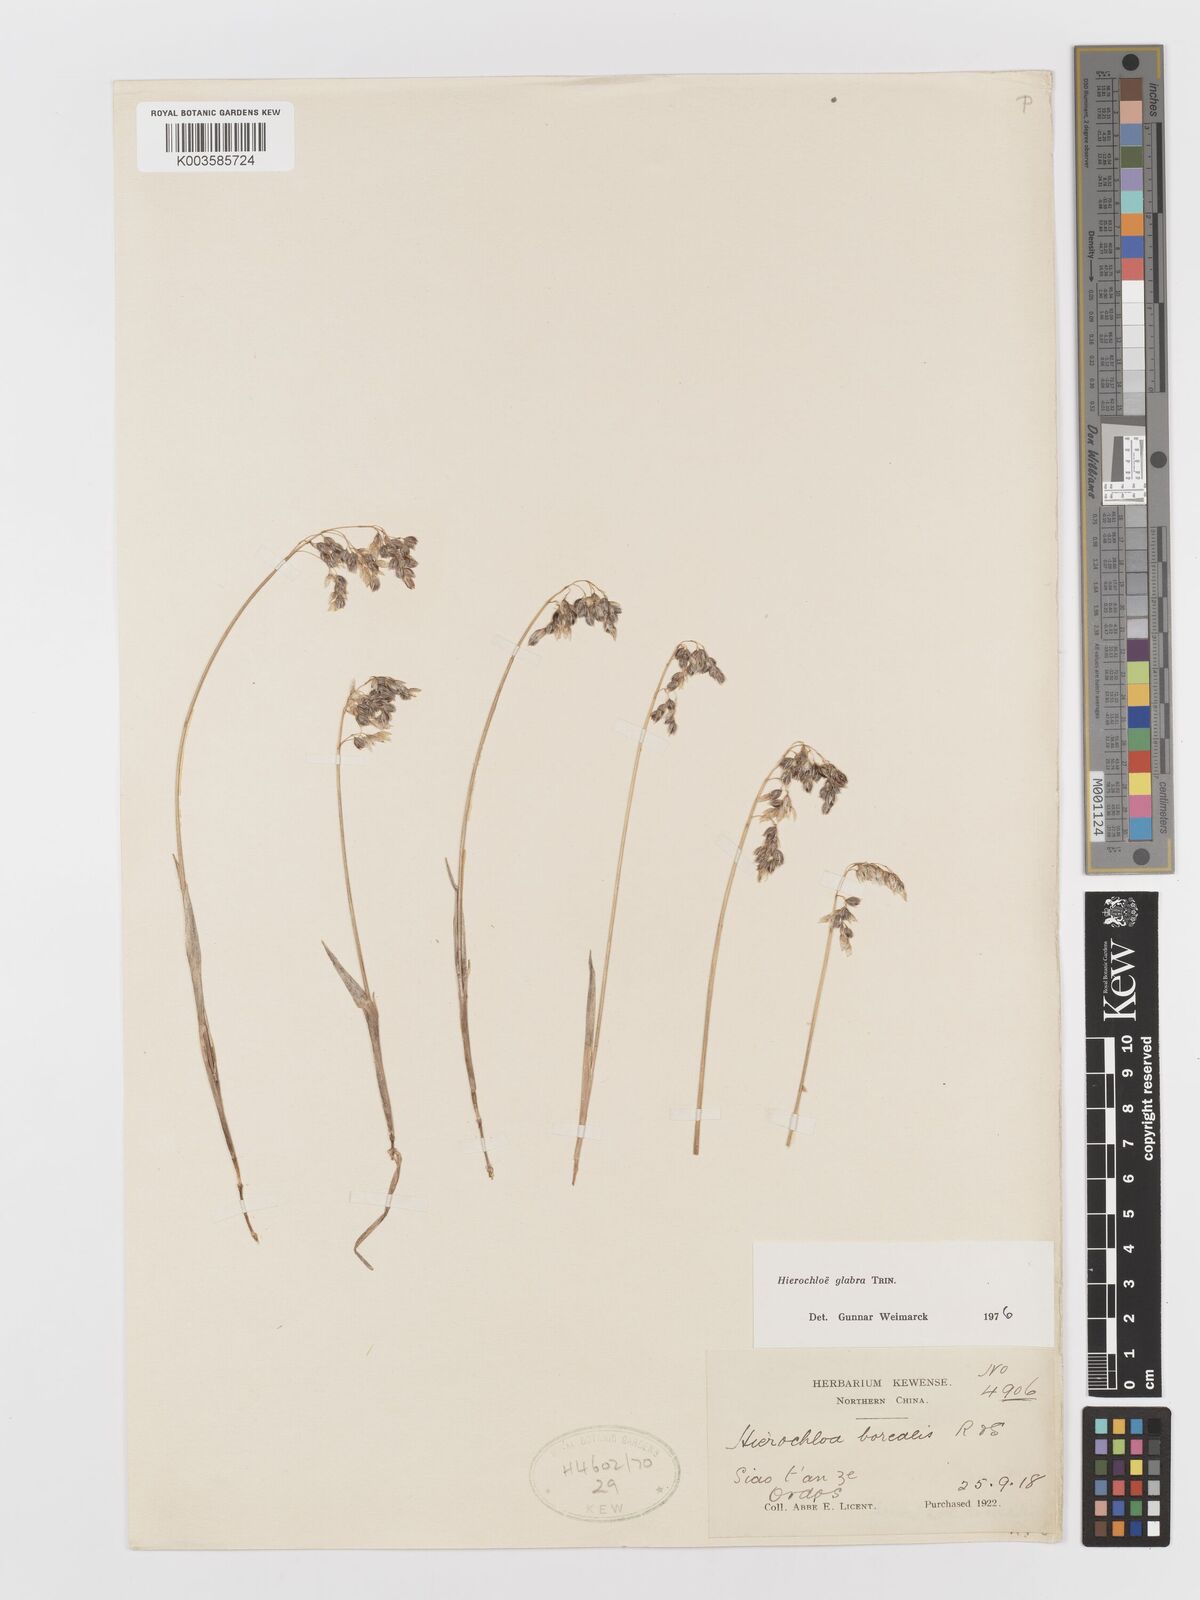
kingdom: Plantae
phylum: Tracheophyta
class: Liliopsida
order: Poales
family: Poaceae
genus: Anthoxanthum
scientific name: Anthoxanthum glabrum
